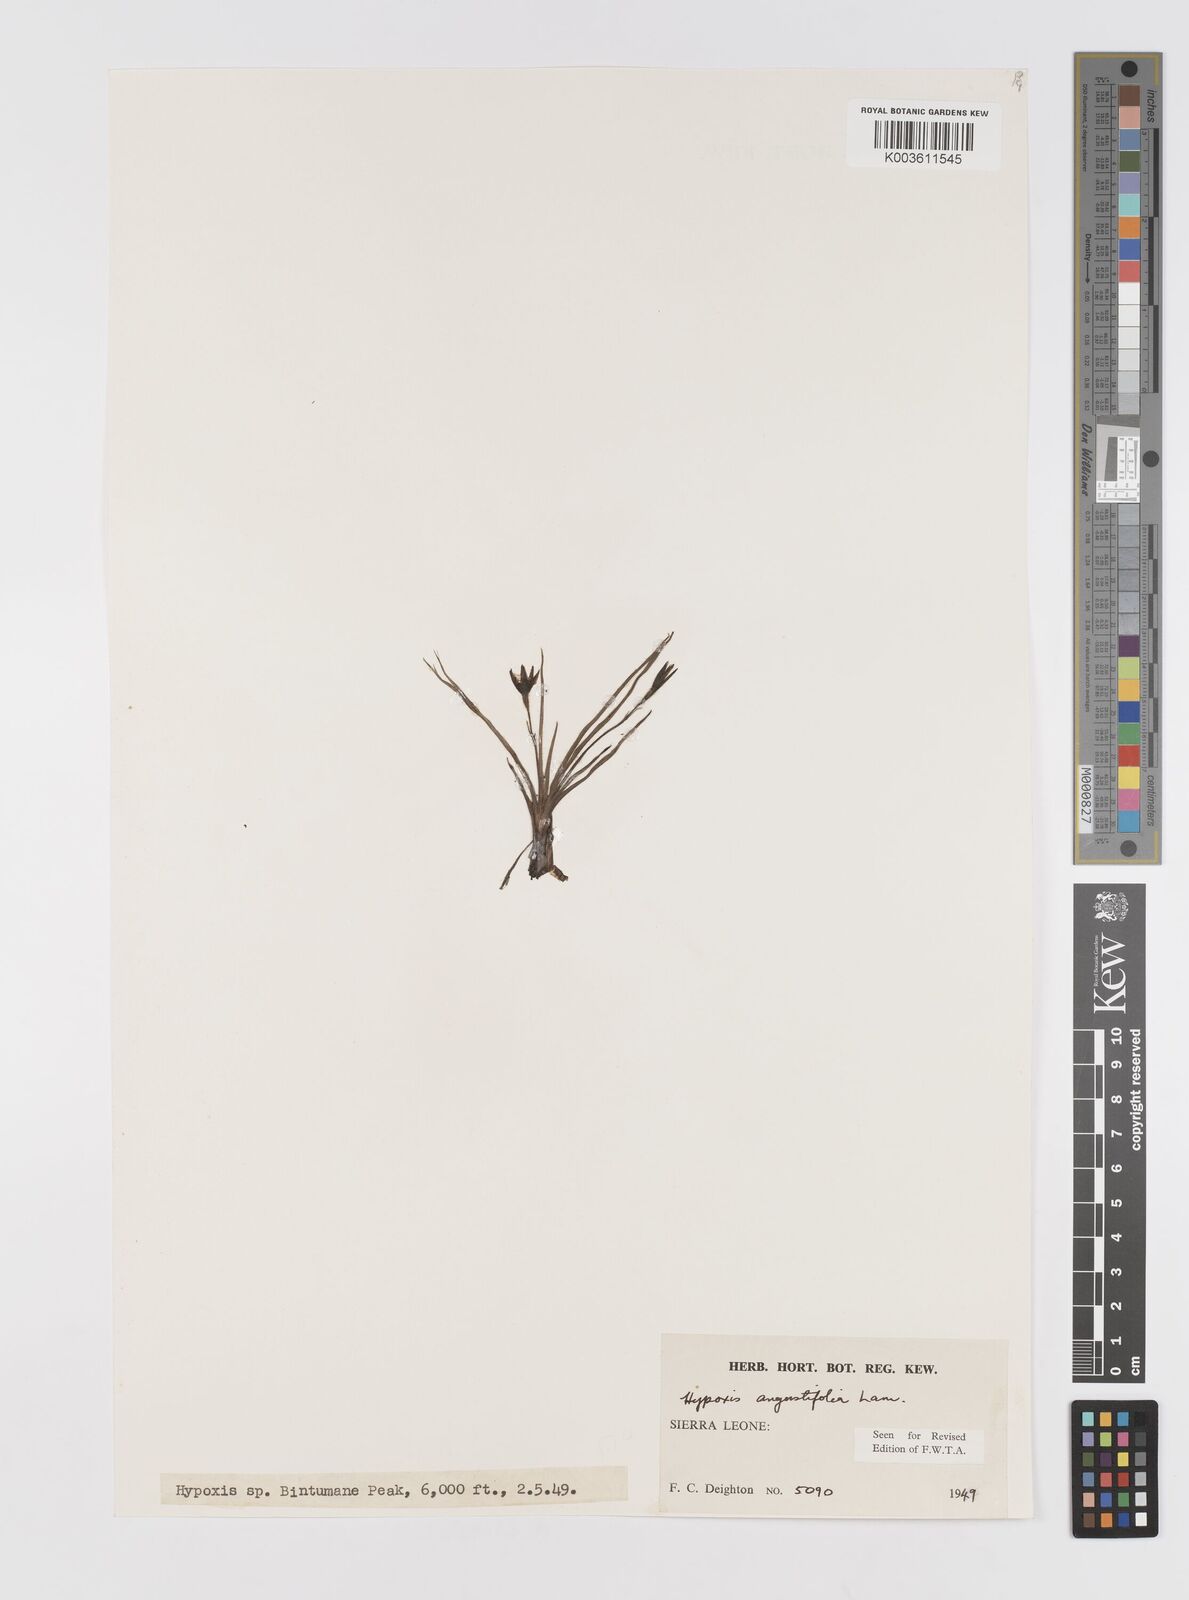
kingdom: Plantae
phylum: Tracheophyta
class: Liliopsida
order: Asparagales
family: Hypoxidaceae
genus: Hypoxis
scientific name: Hypoxis angustifolia
